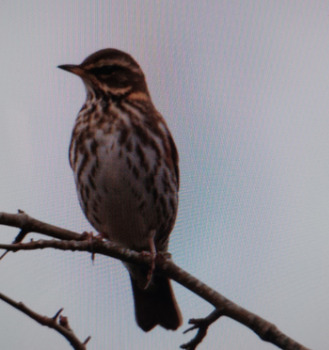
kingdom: Animalia
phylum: Chordata
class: Aves
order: Passeriformes
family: Turdidae
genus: Turdus
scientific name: Turdus iliacus
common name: Vindrossel
